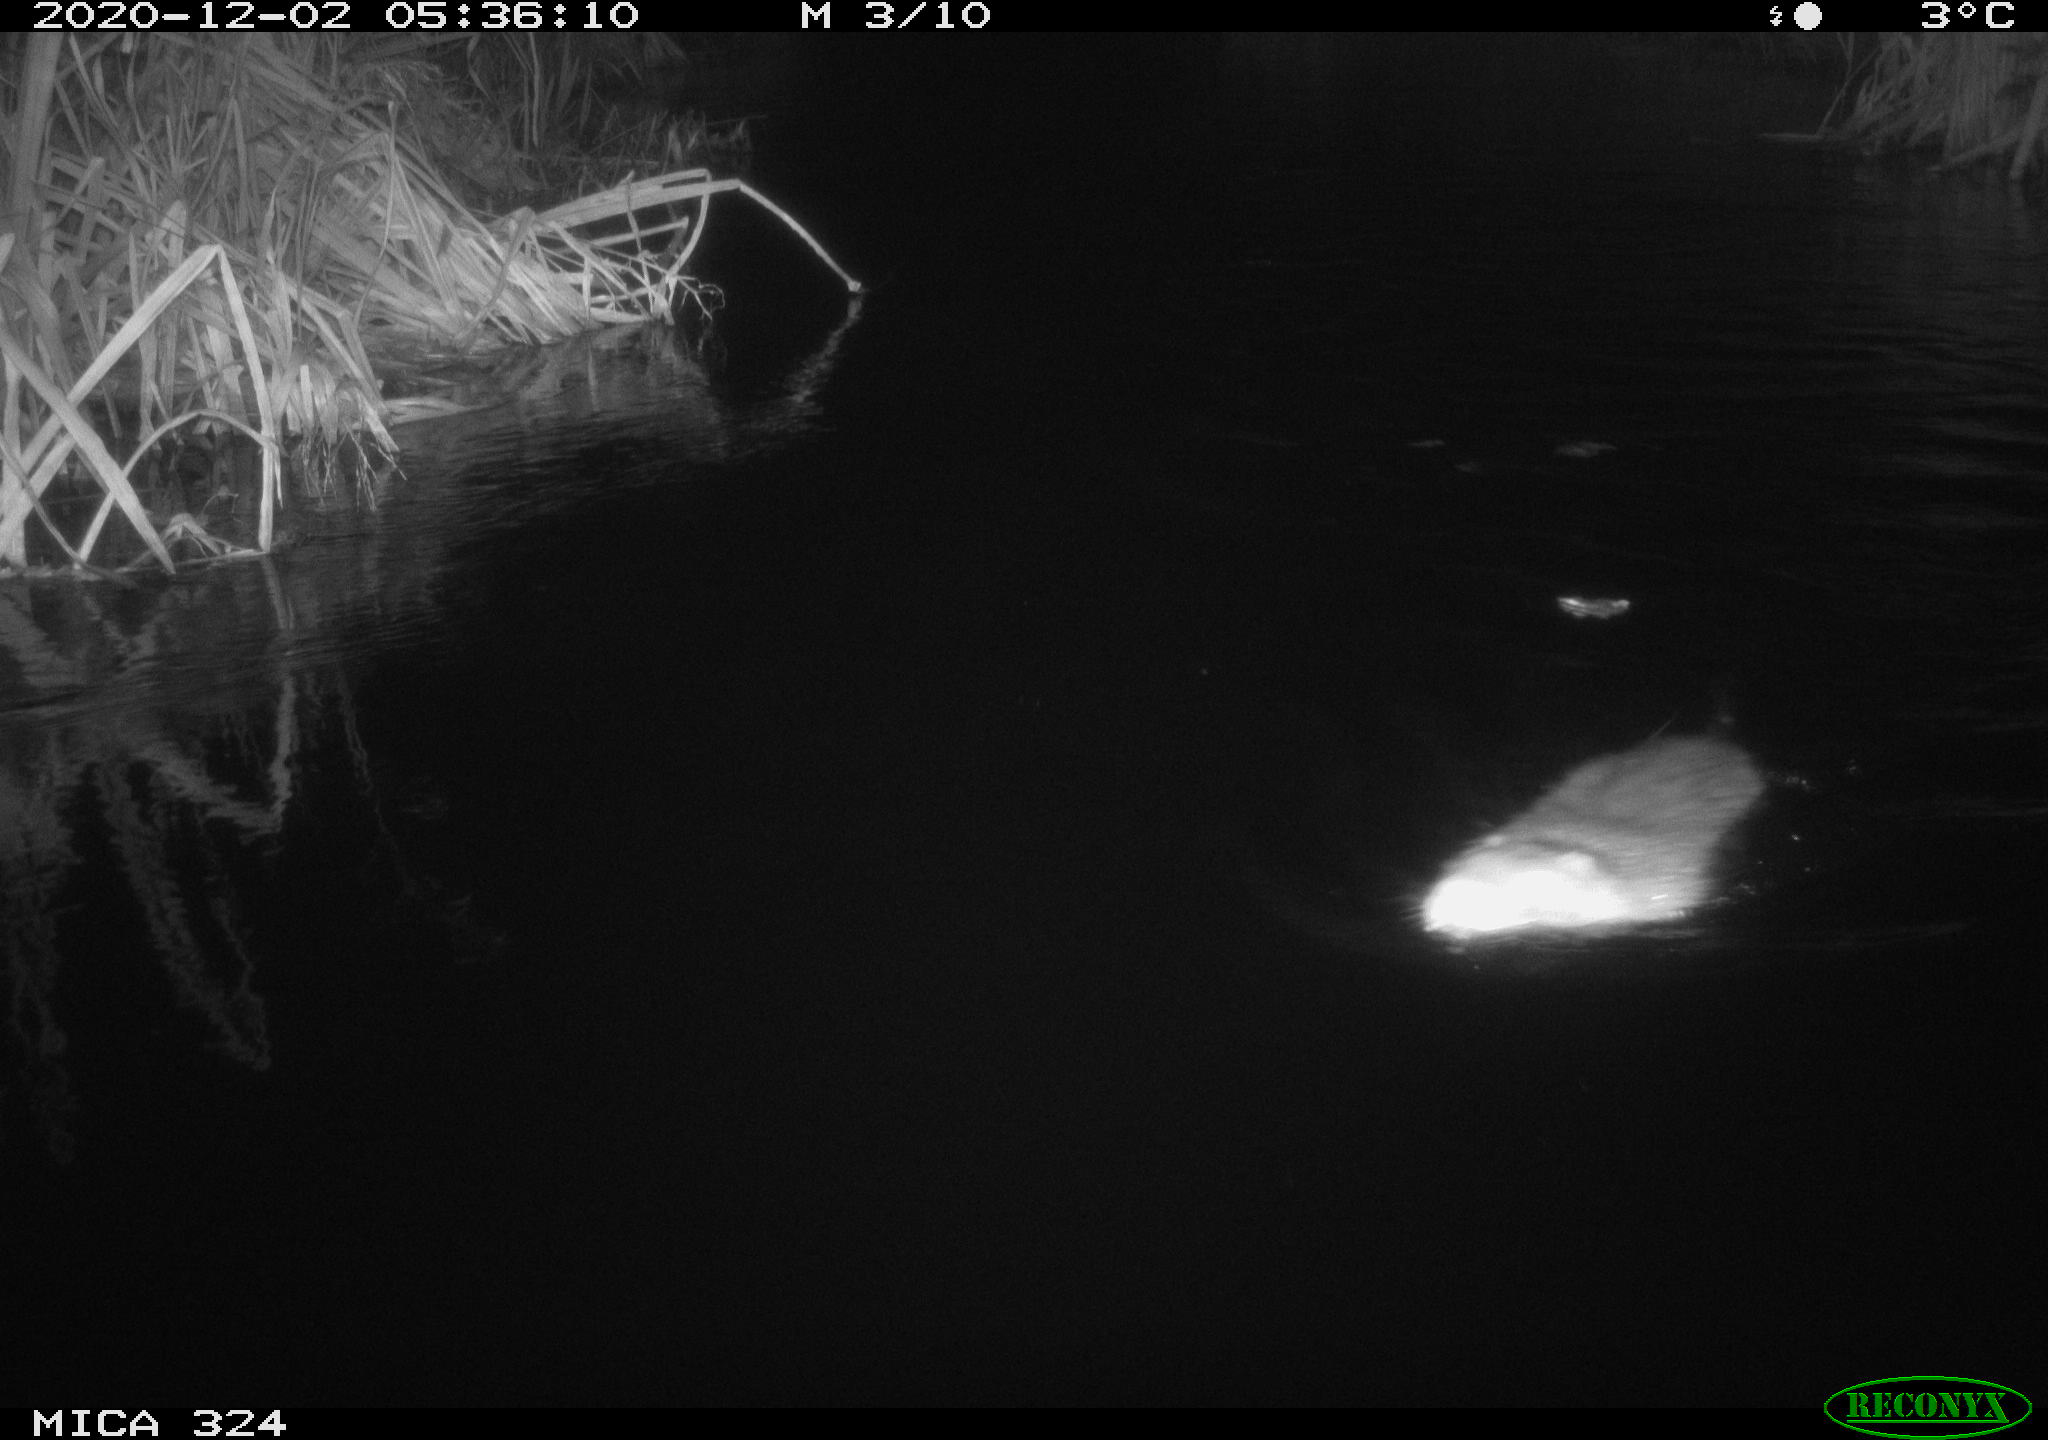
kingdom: Animalia
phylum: Chordata
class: Mammalia
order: Rodentia
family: Myocastoridae
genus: Myocastor
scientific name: Myocastor coypus
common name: Coypu
